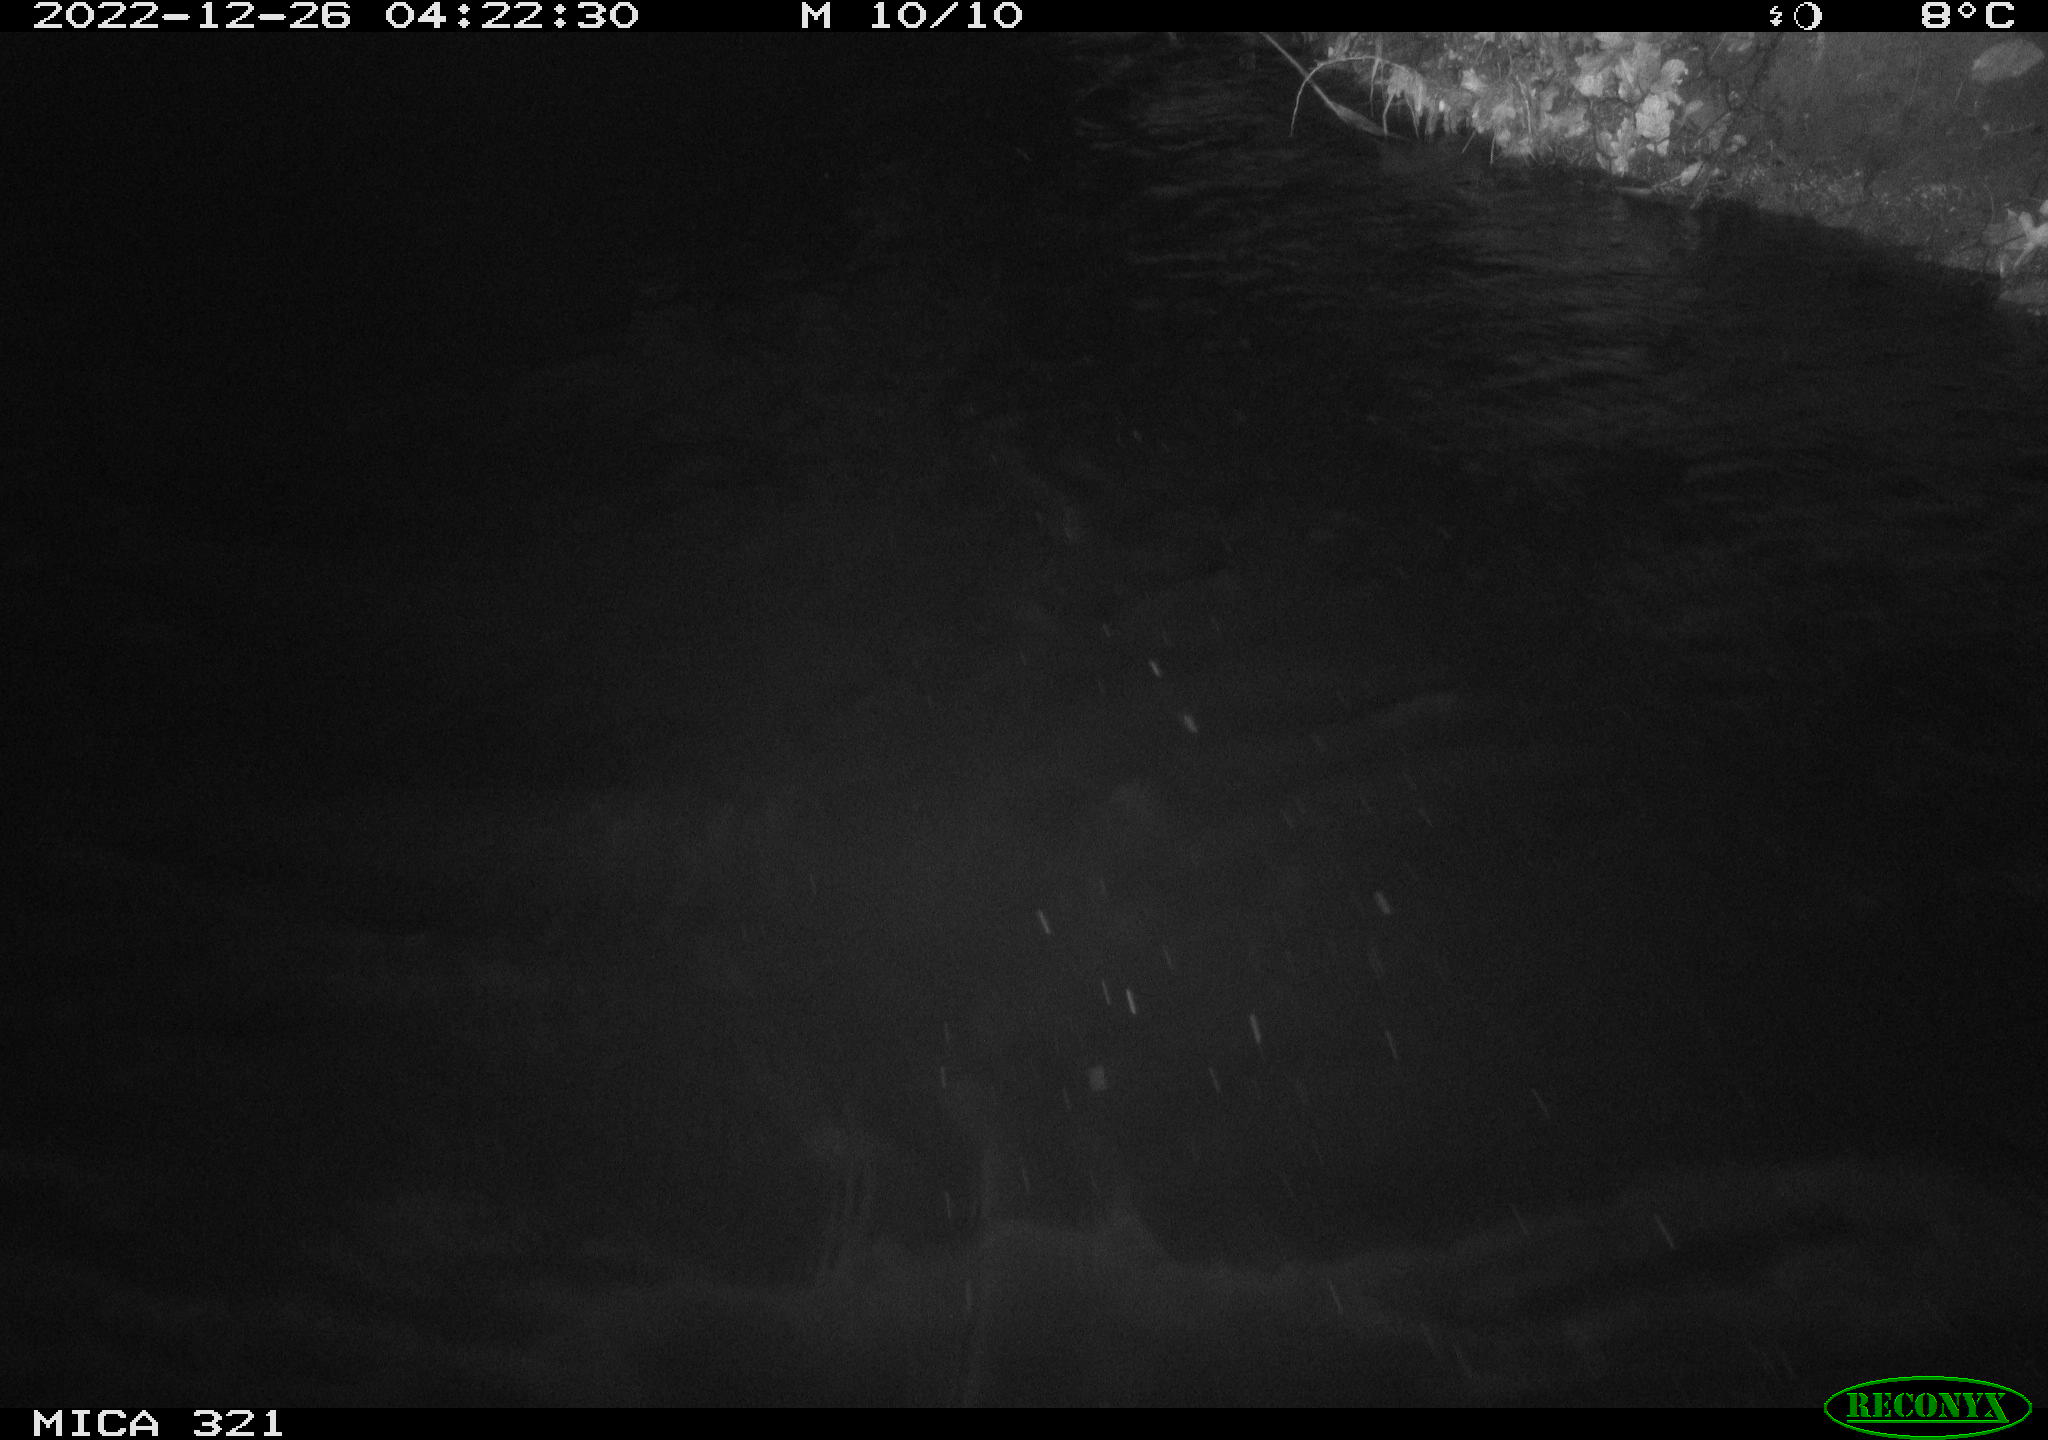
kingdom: Animalia
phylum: Chordata
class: Aves
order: Anseriformes
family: Anatidae
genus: Anas
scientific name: Anas
